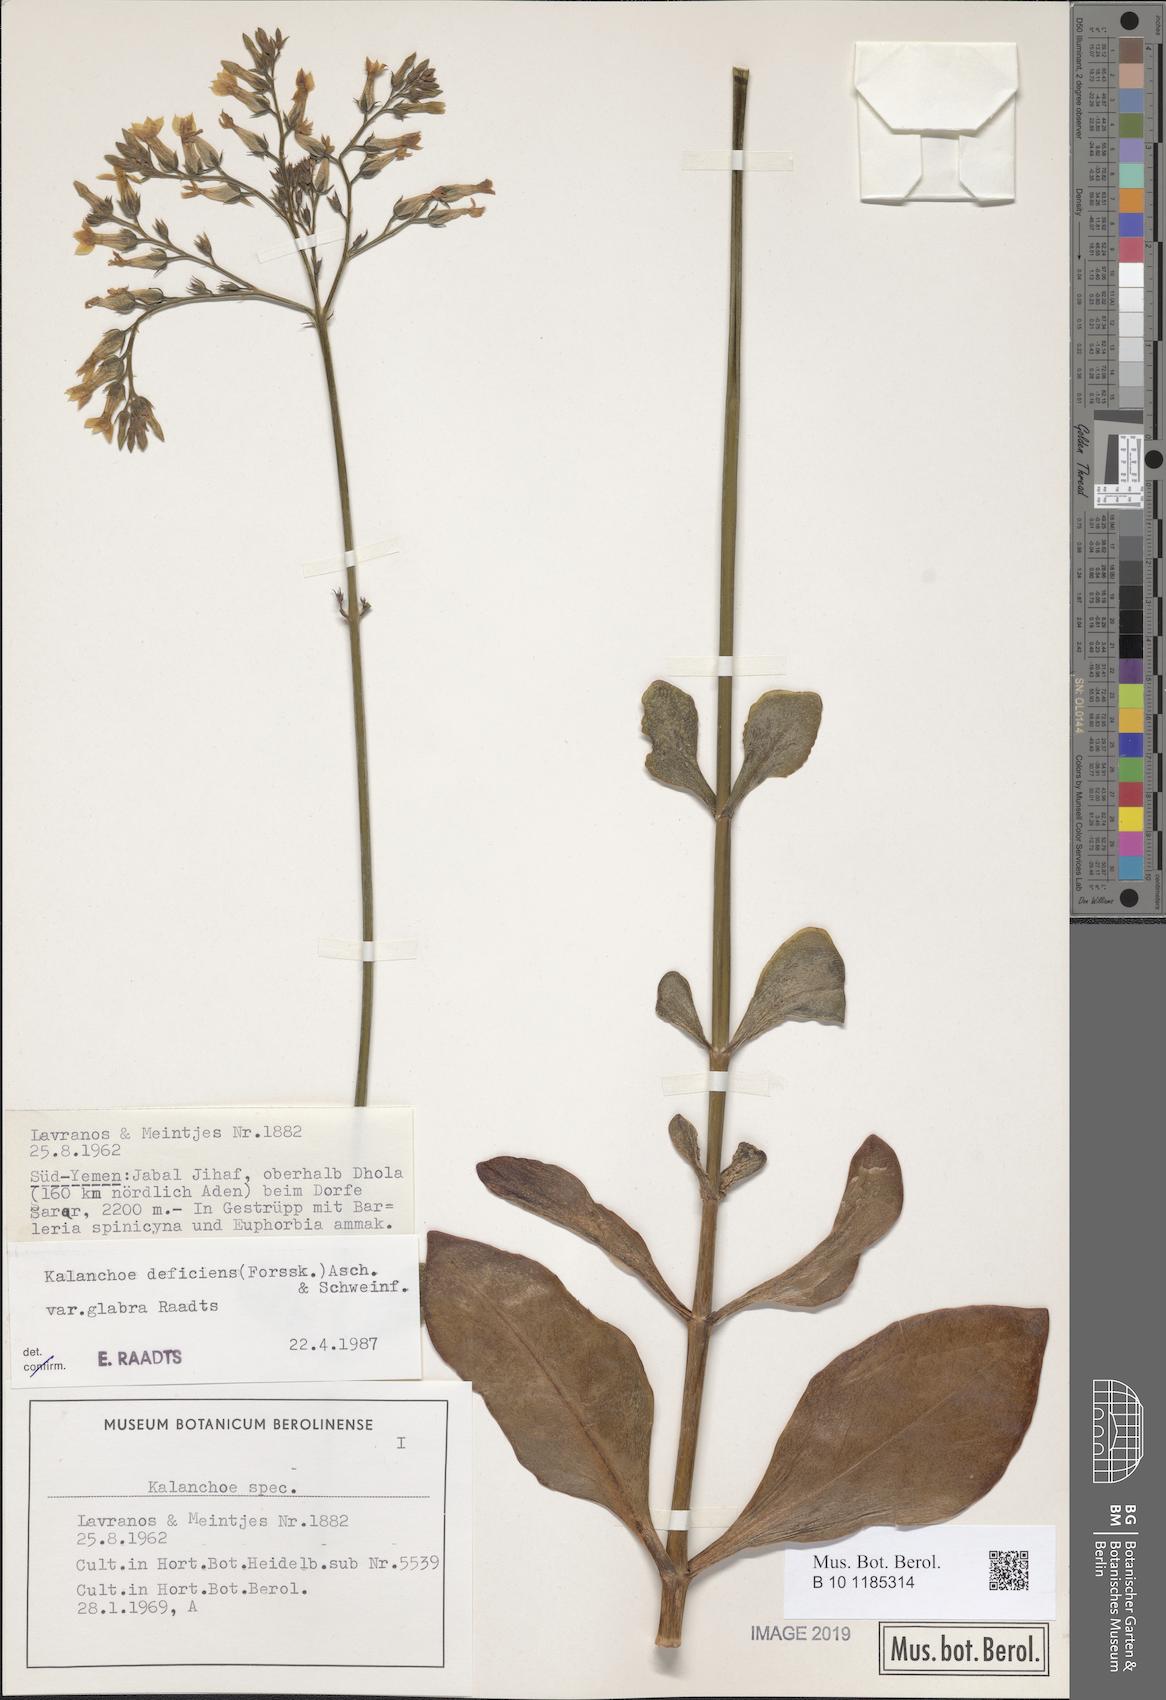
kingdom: Plantae
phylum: Tracheophyta
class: Magnoliopsida
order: Saxifragales
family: Crassulaceae
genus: Kalanchoe
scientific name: Kalanchoe deficiens
